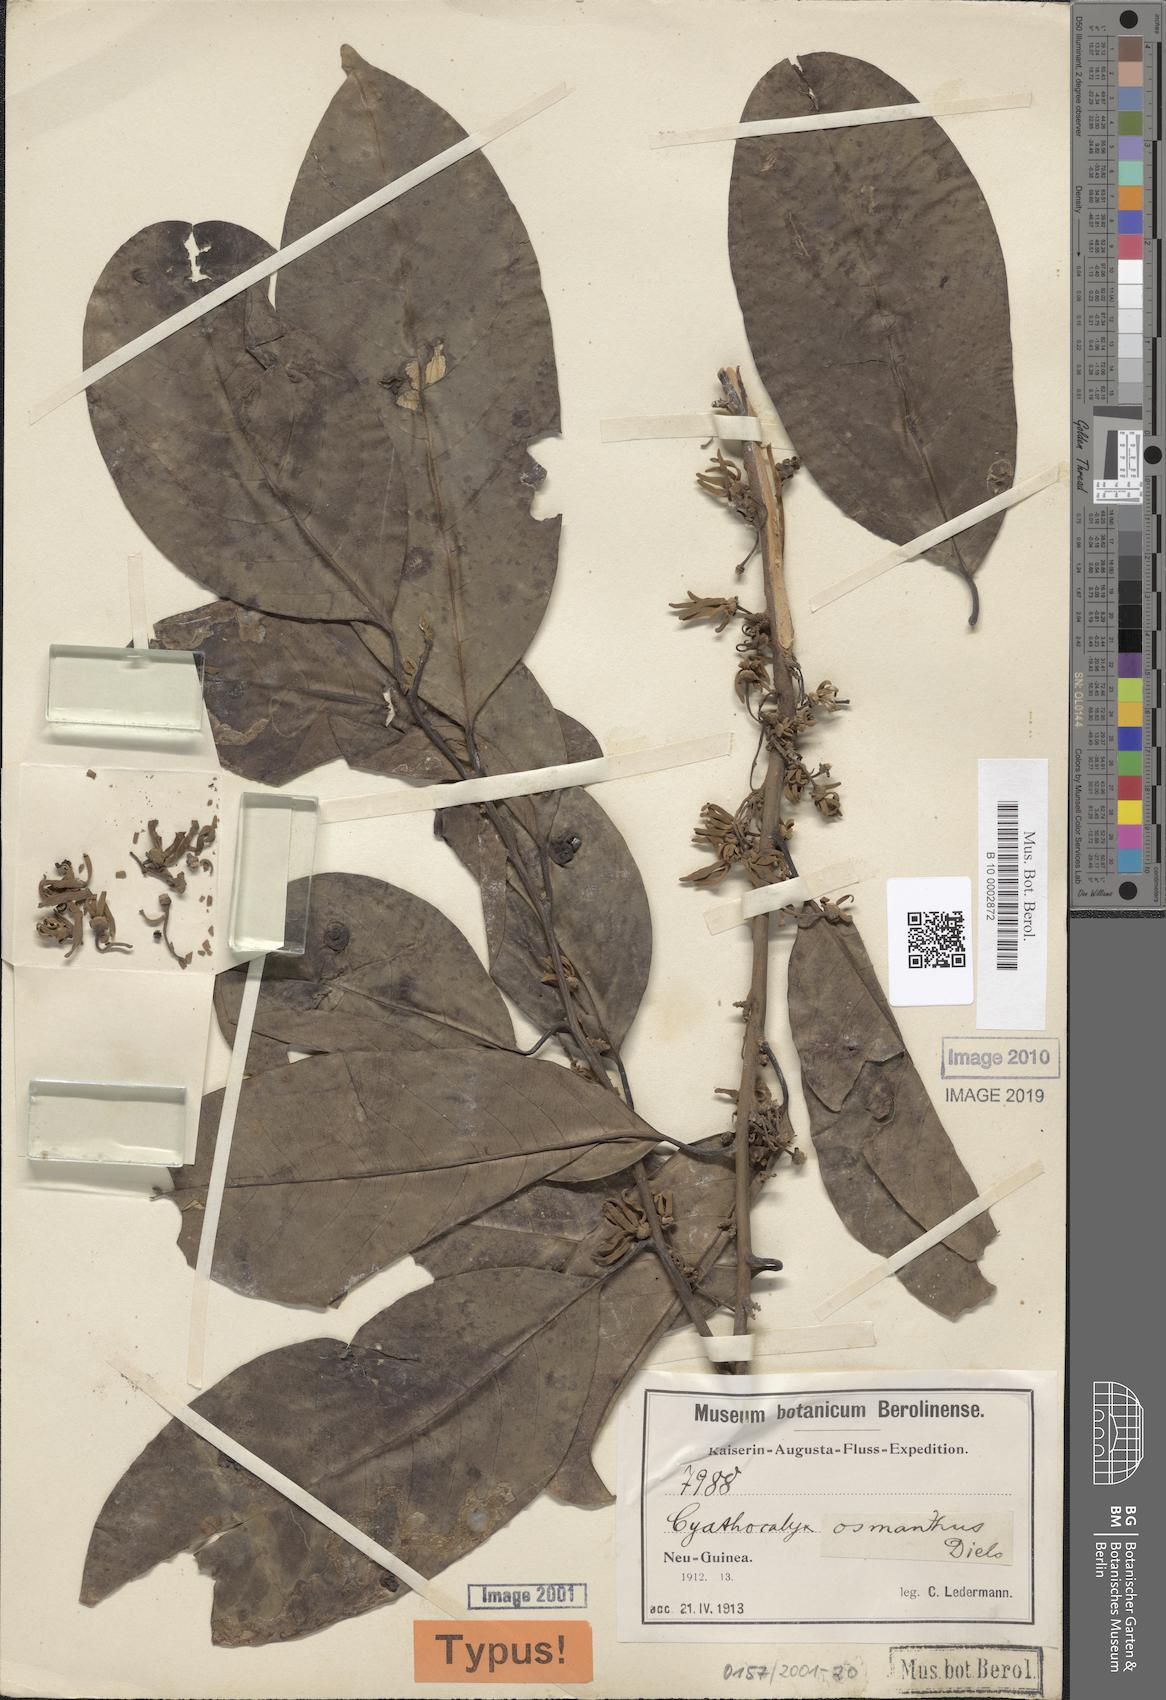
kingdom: Plantae
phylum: Tracheophyta
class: Magnoliopsida
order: Magnoliales
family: Annonaceae
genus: Drepananthus
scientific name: Drepananthus obtusifolius
